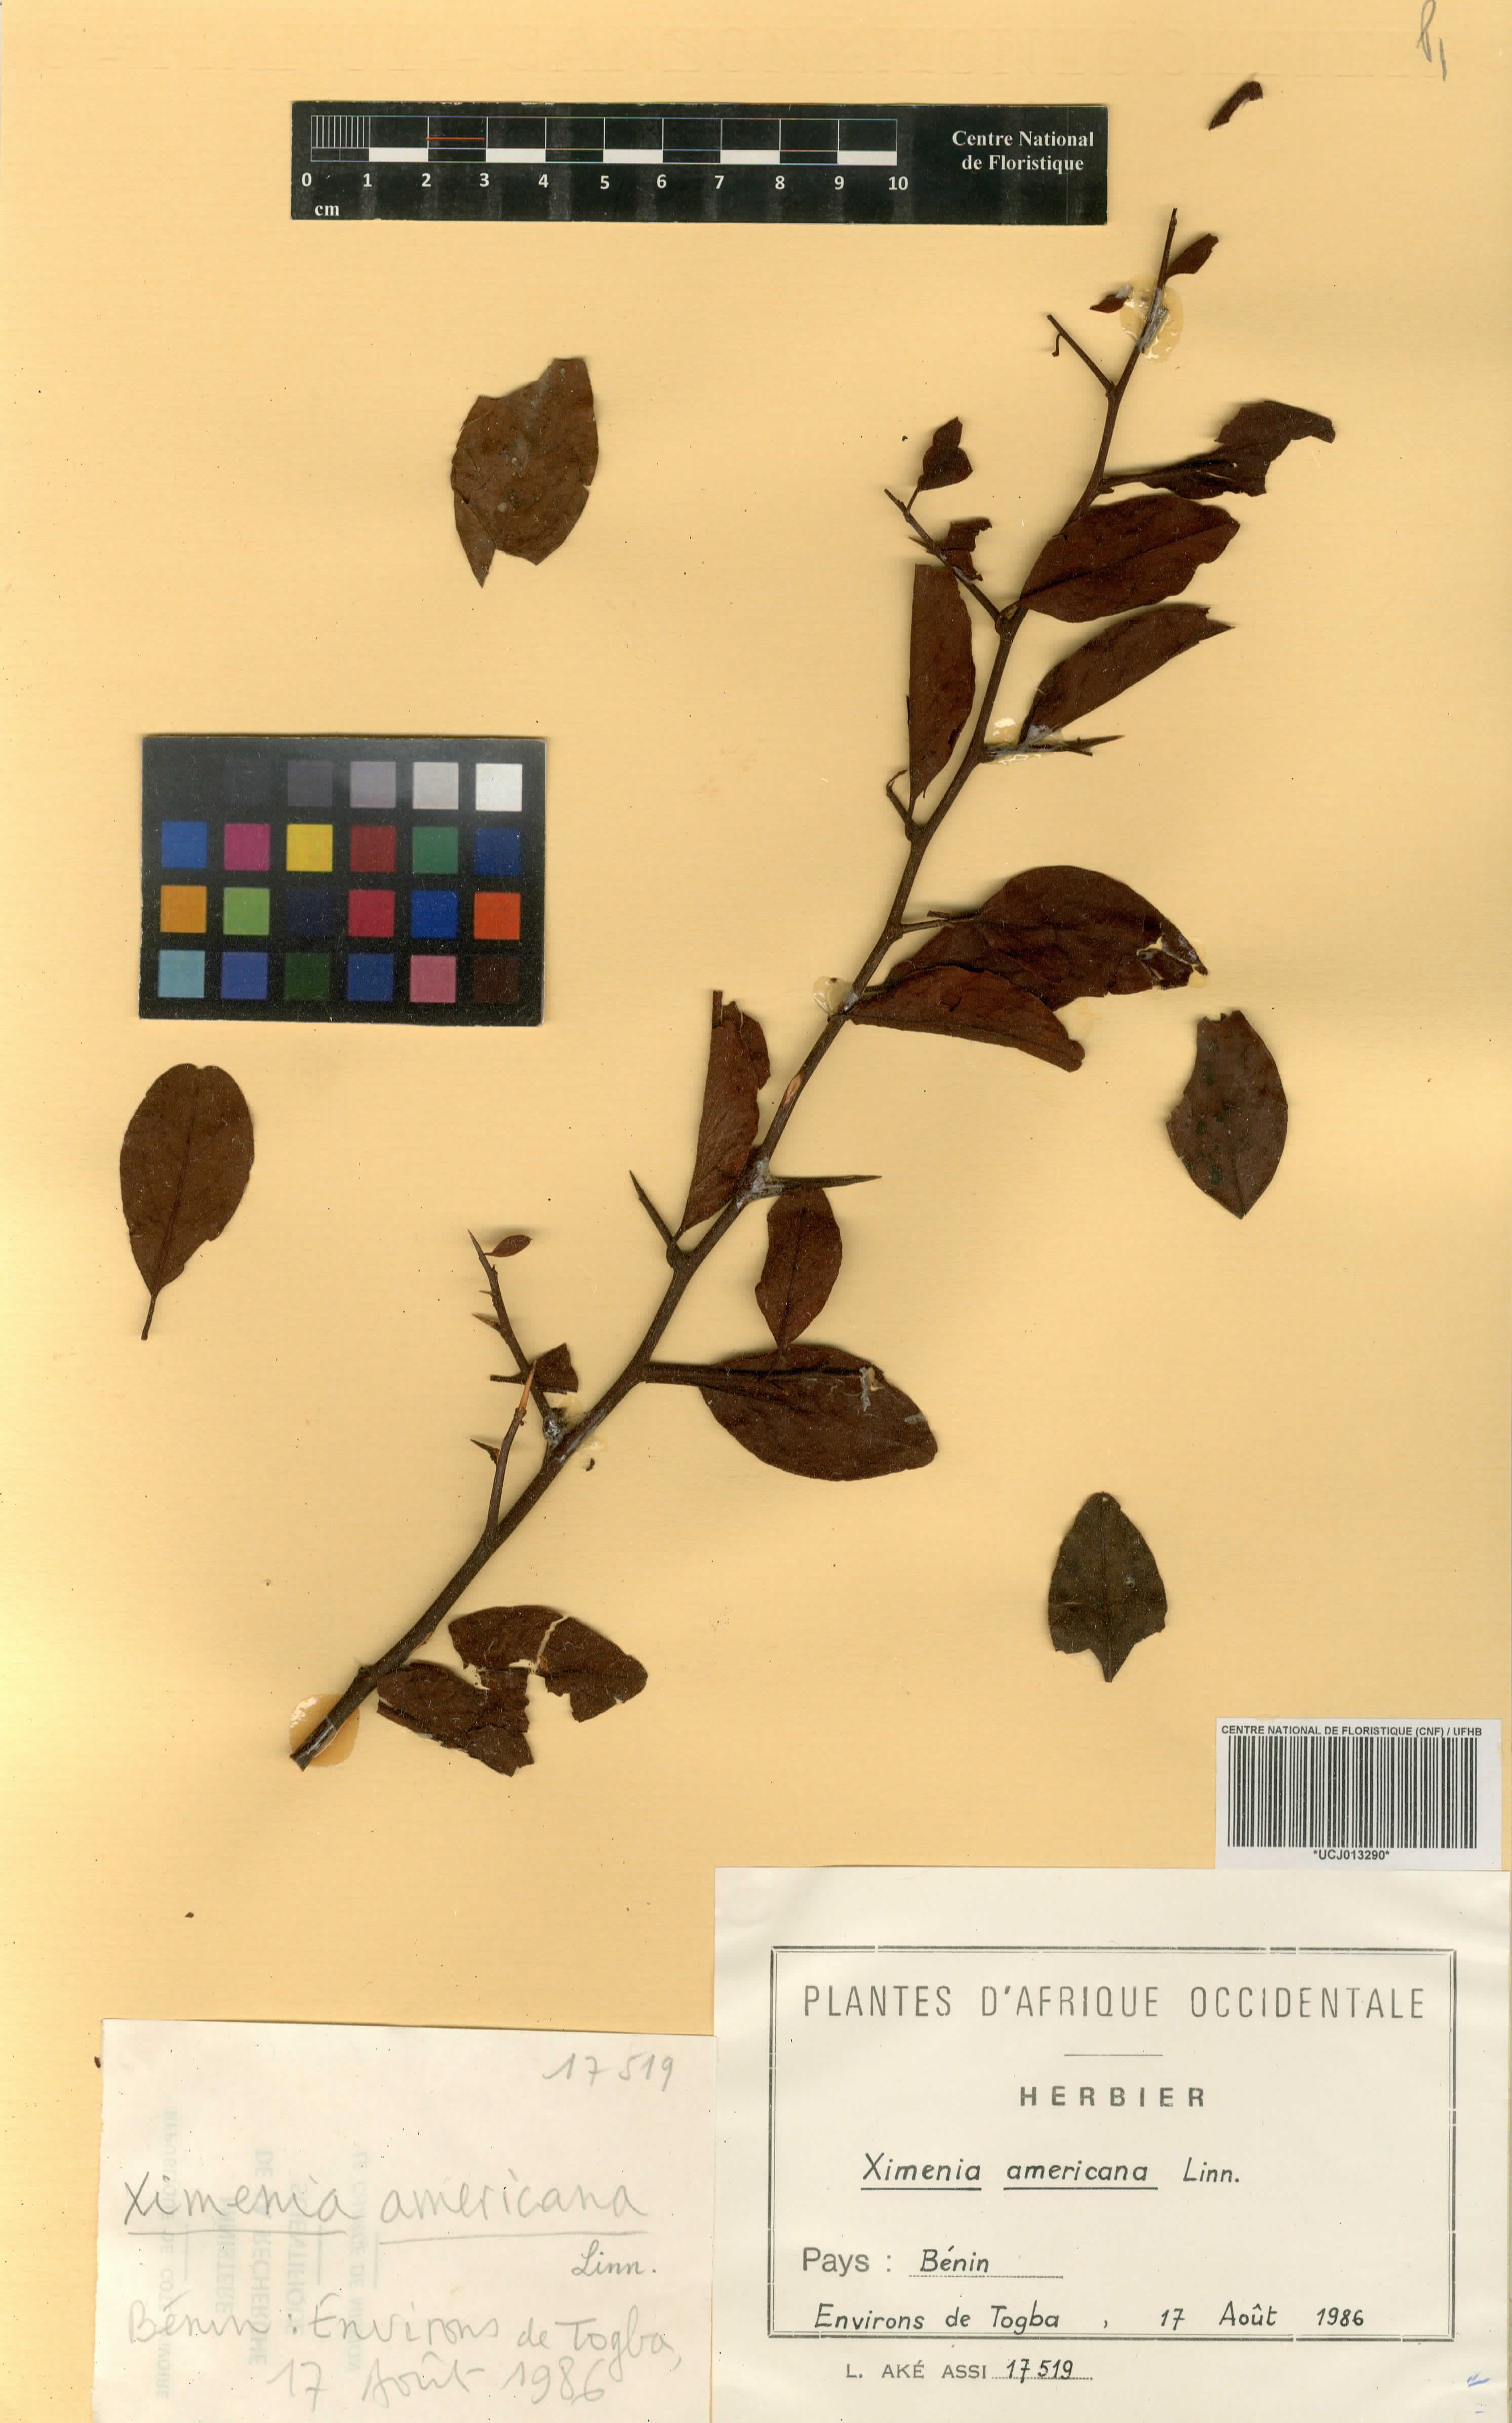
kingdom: Plantae
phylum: Tracheophyta
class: Magnoliopsida
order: Santalales
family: Ximeniaceae
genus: Ximenia
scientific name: Ximenia americana
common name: Tallowwood
